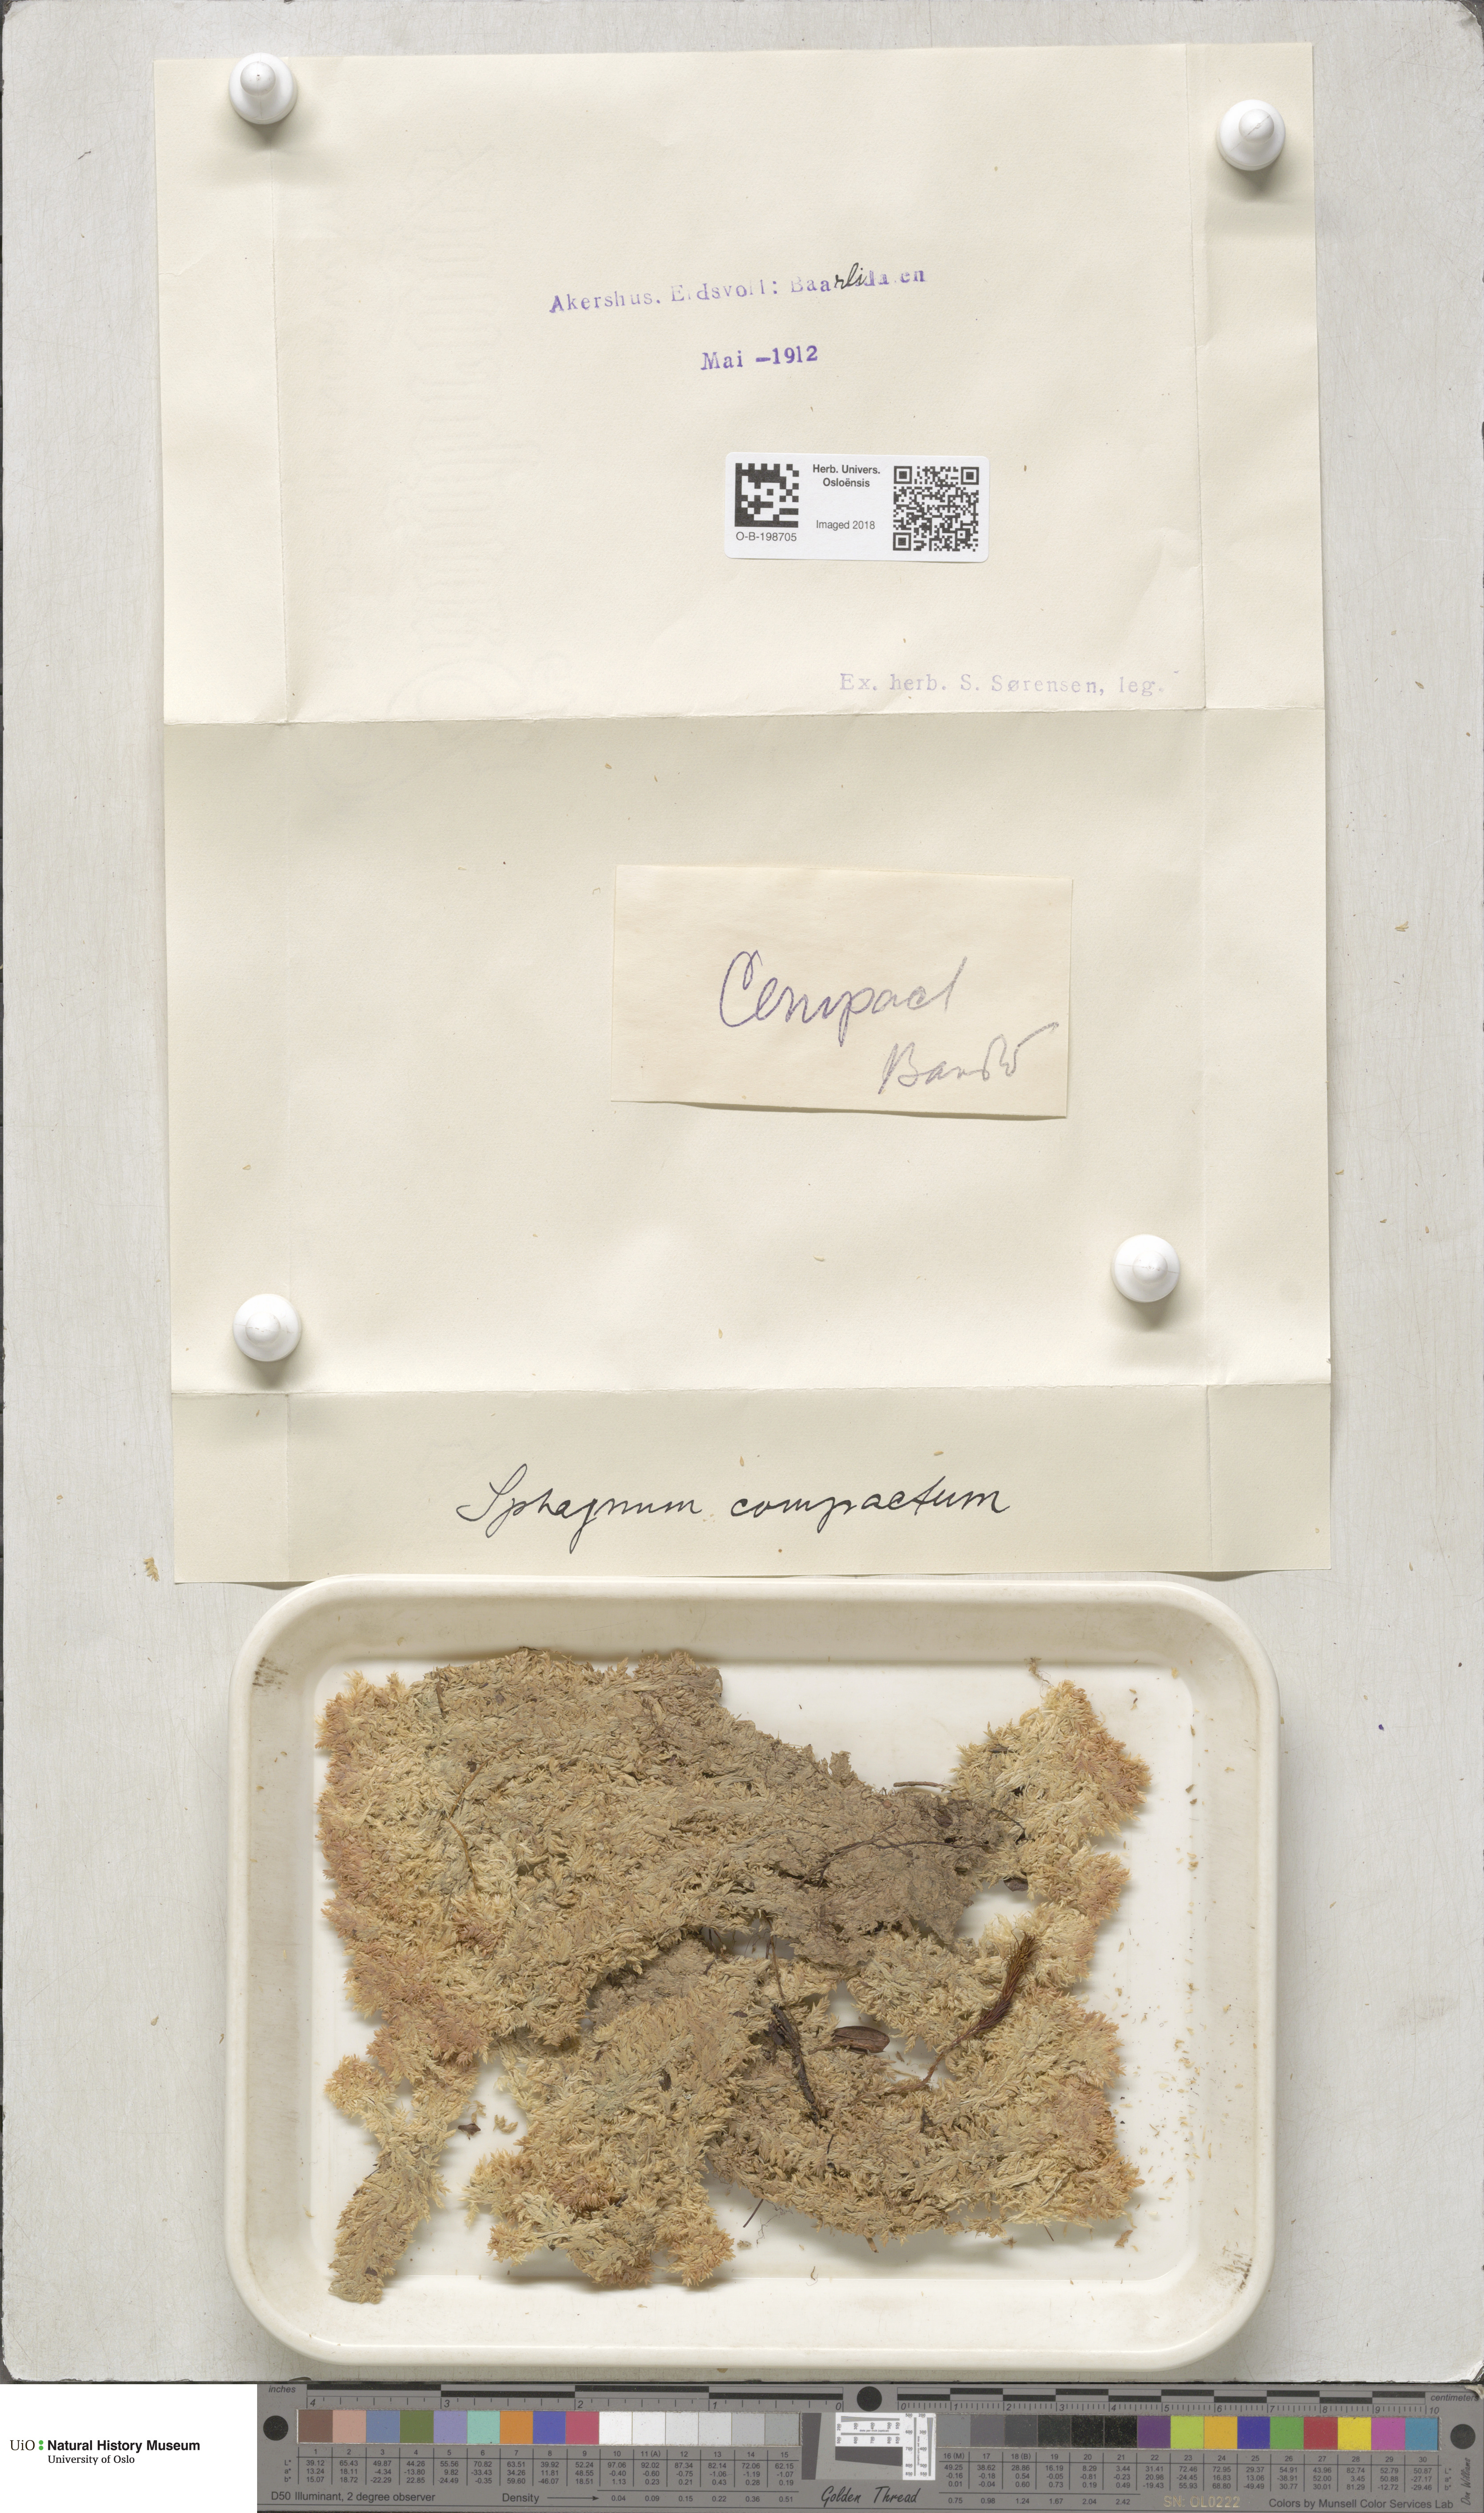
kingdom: Plantae
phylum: Bryophyta
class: Sphagnopsida
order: Sphagnales
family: Sphagnaceae
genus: Sphagnum
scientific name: Sphagnum compactum
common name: Compact peat moss
